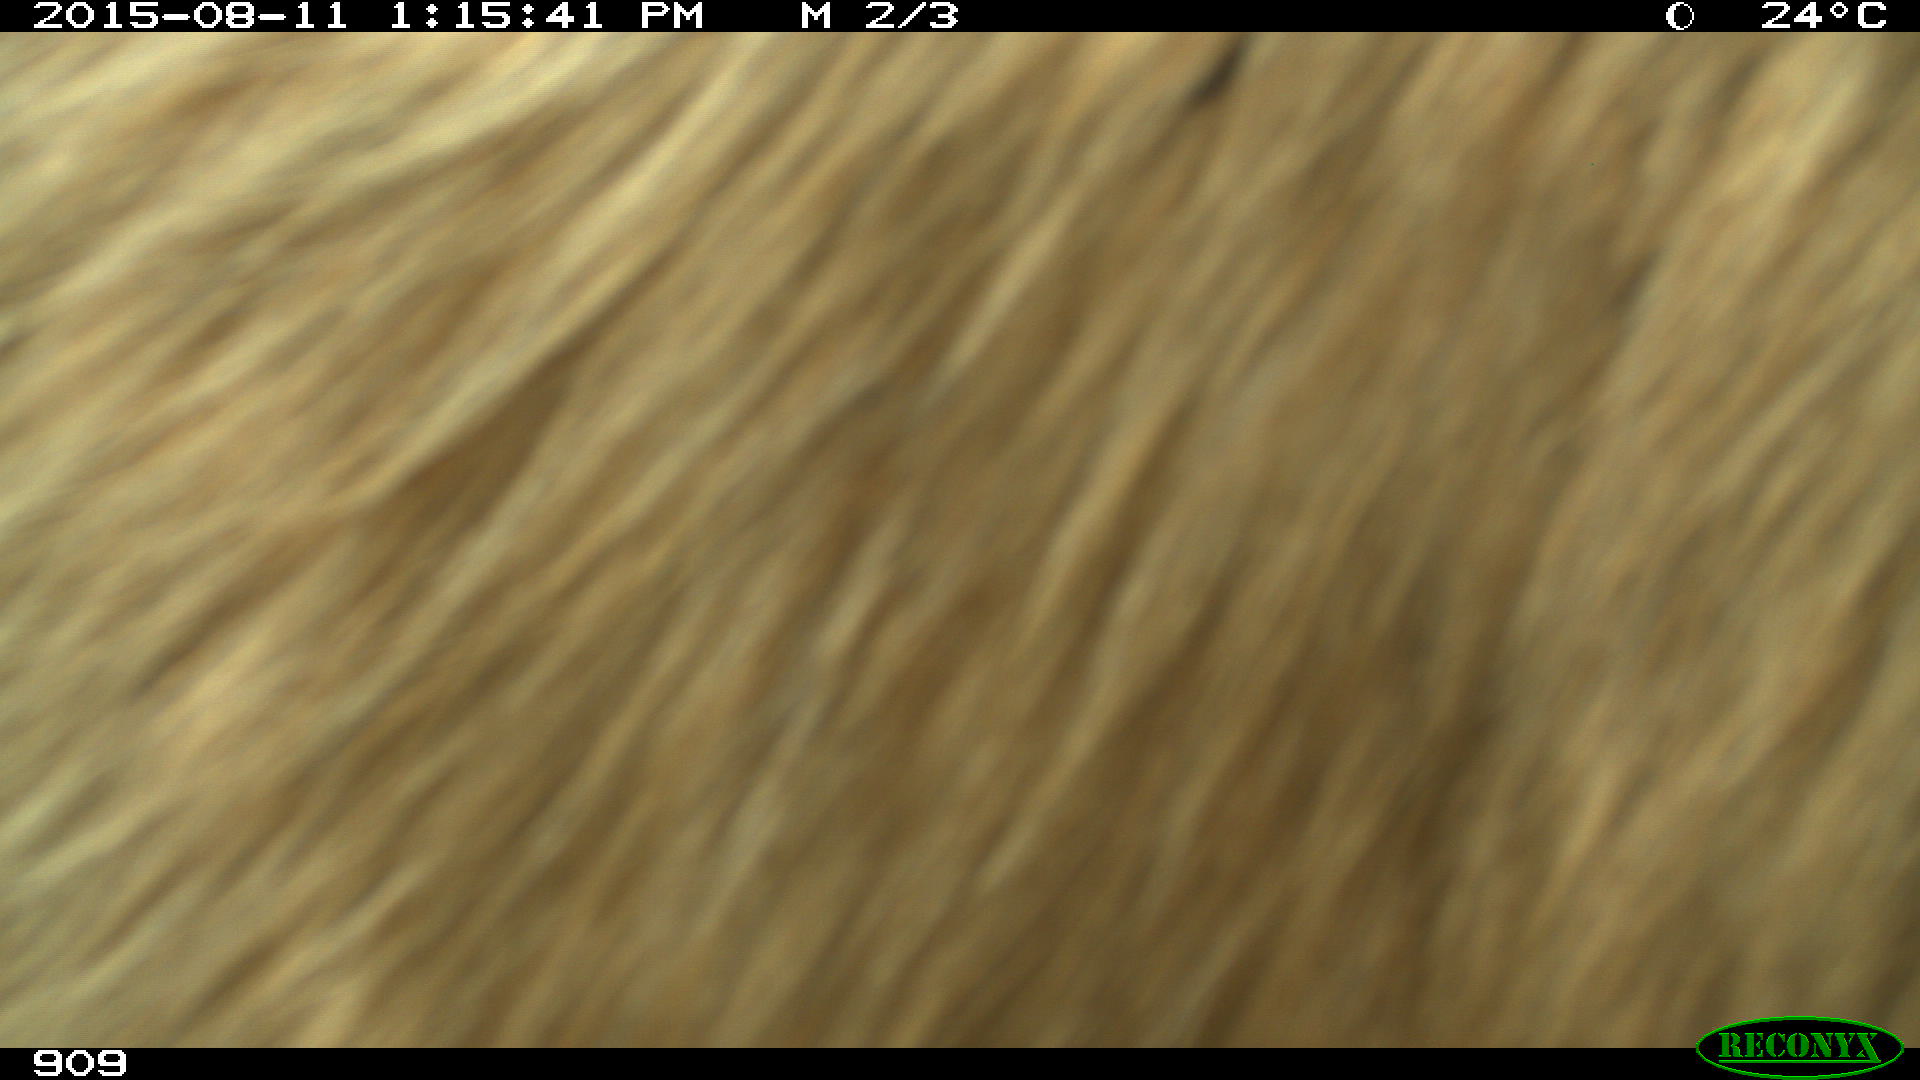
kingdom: Animalia
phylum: Chordata
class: Mammalia
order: Artiodactyla
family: Bovidae
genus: Bos
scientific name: Bos taurus
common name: Domesticated cattle
